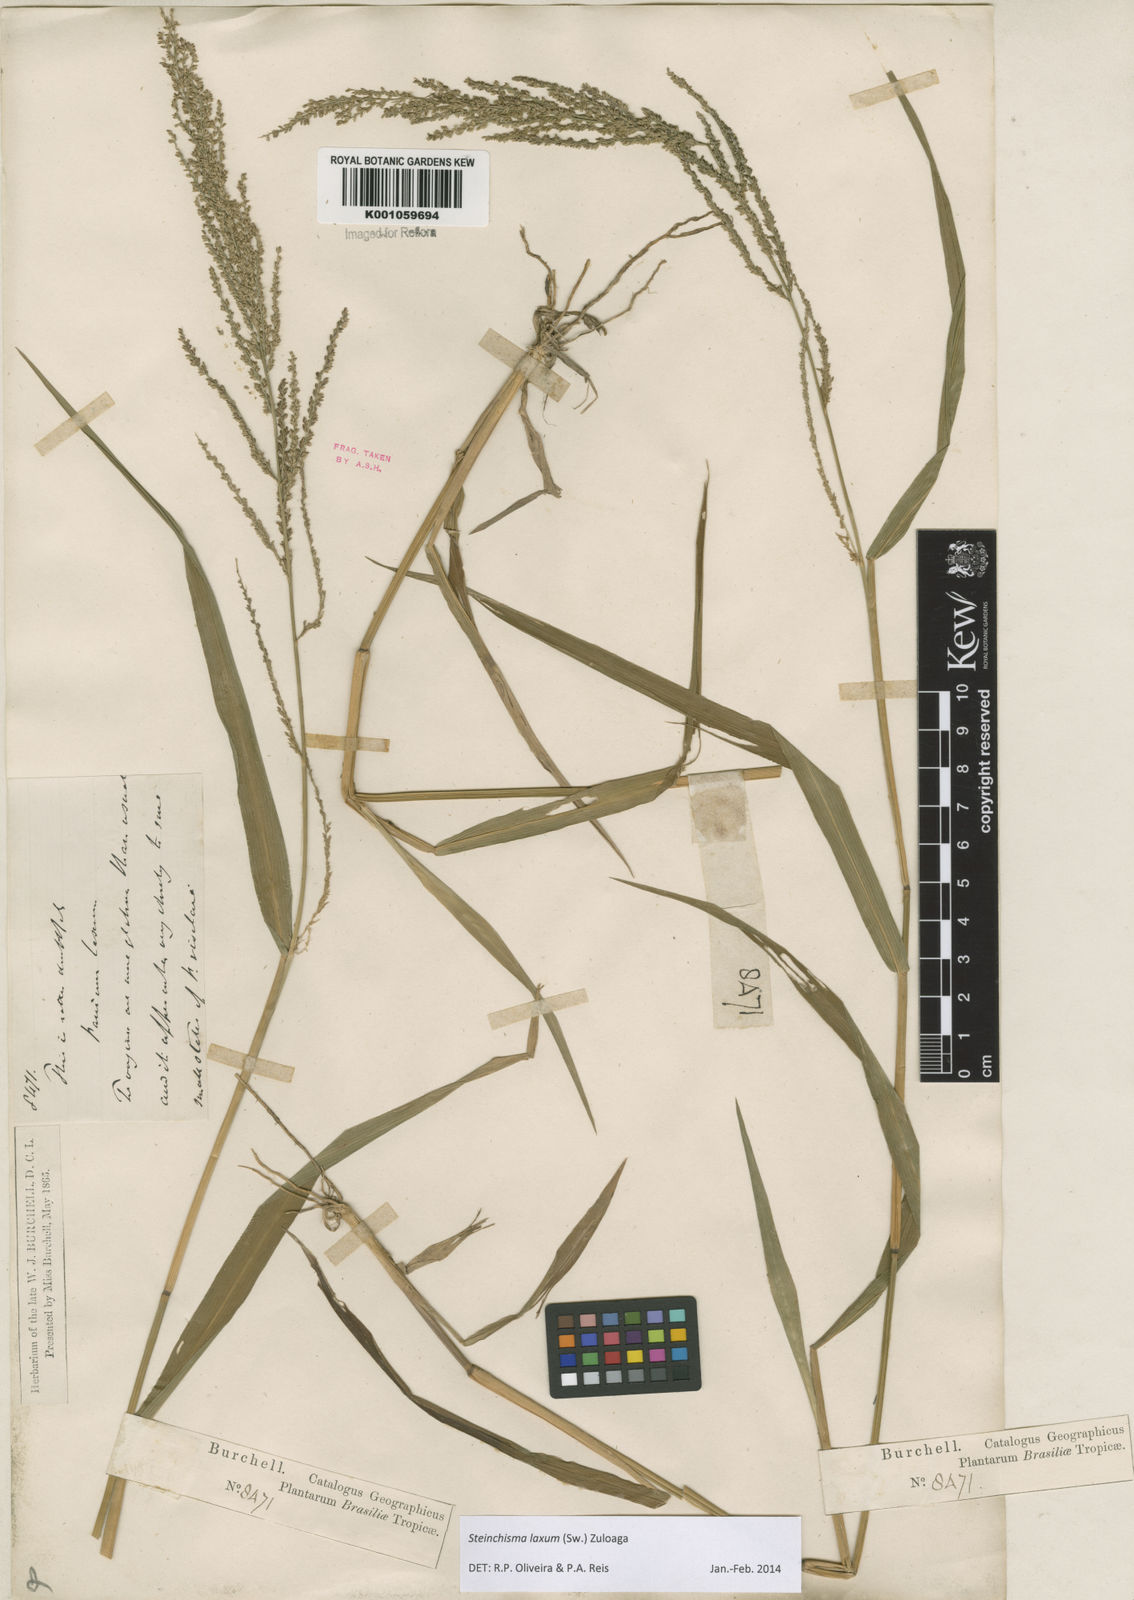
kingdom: Plantae
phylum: Tracheophyta
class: Liliopsida
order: Poales
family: Poaceae
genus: Steinchisma
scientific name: Steinchisma laxum
